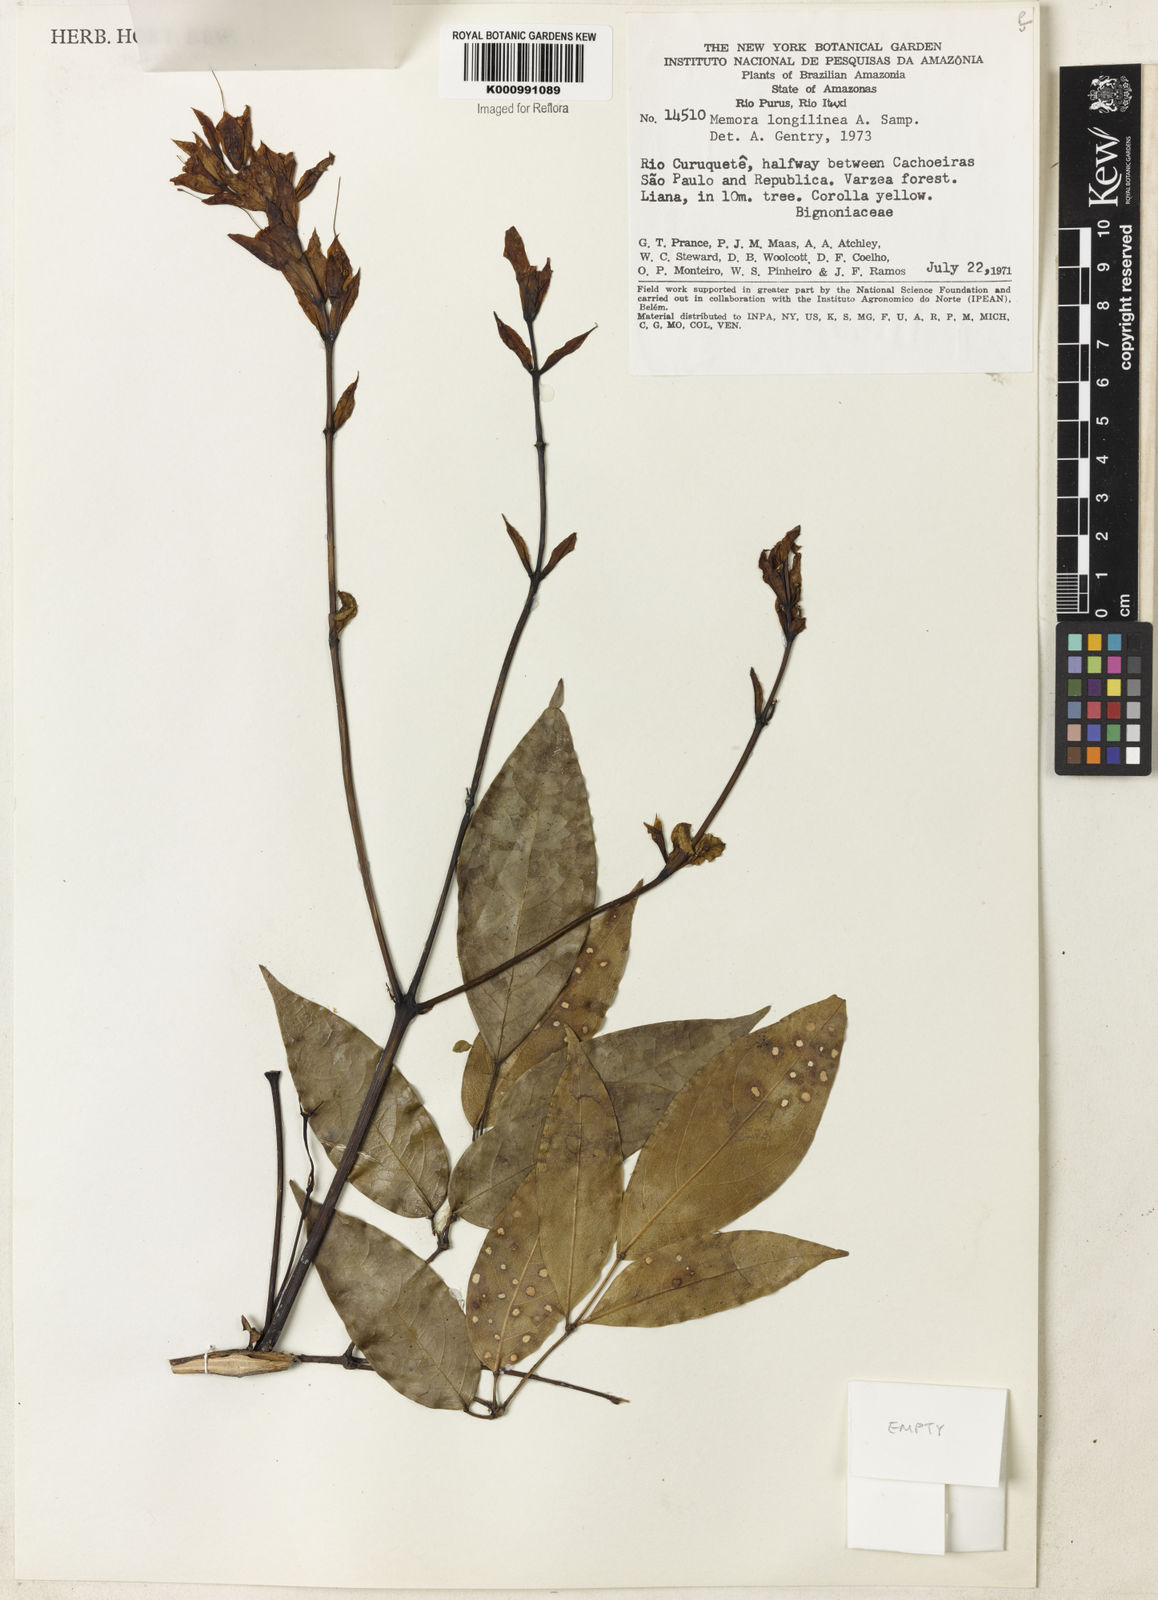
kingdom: Plantae
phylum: Tracheophyta
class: Magnoliopsida
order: Lamiales
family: Bignoniaceae
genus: Adenocalymma
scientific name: Adenocalymma longilineum
